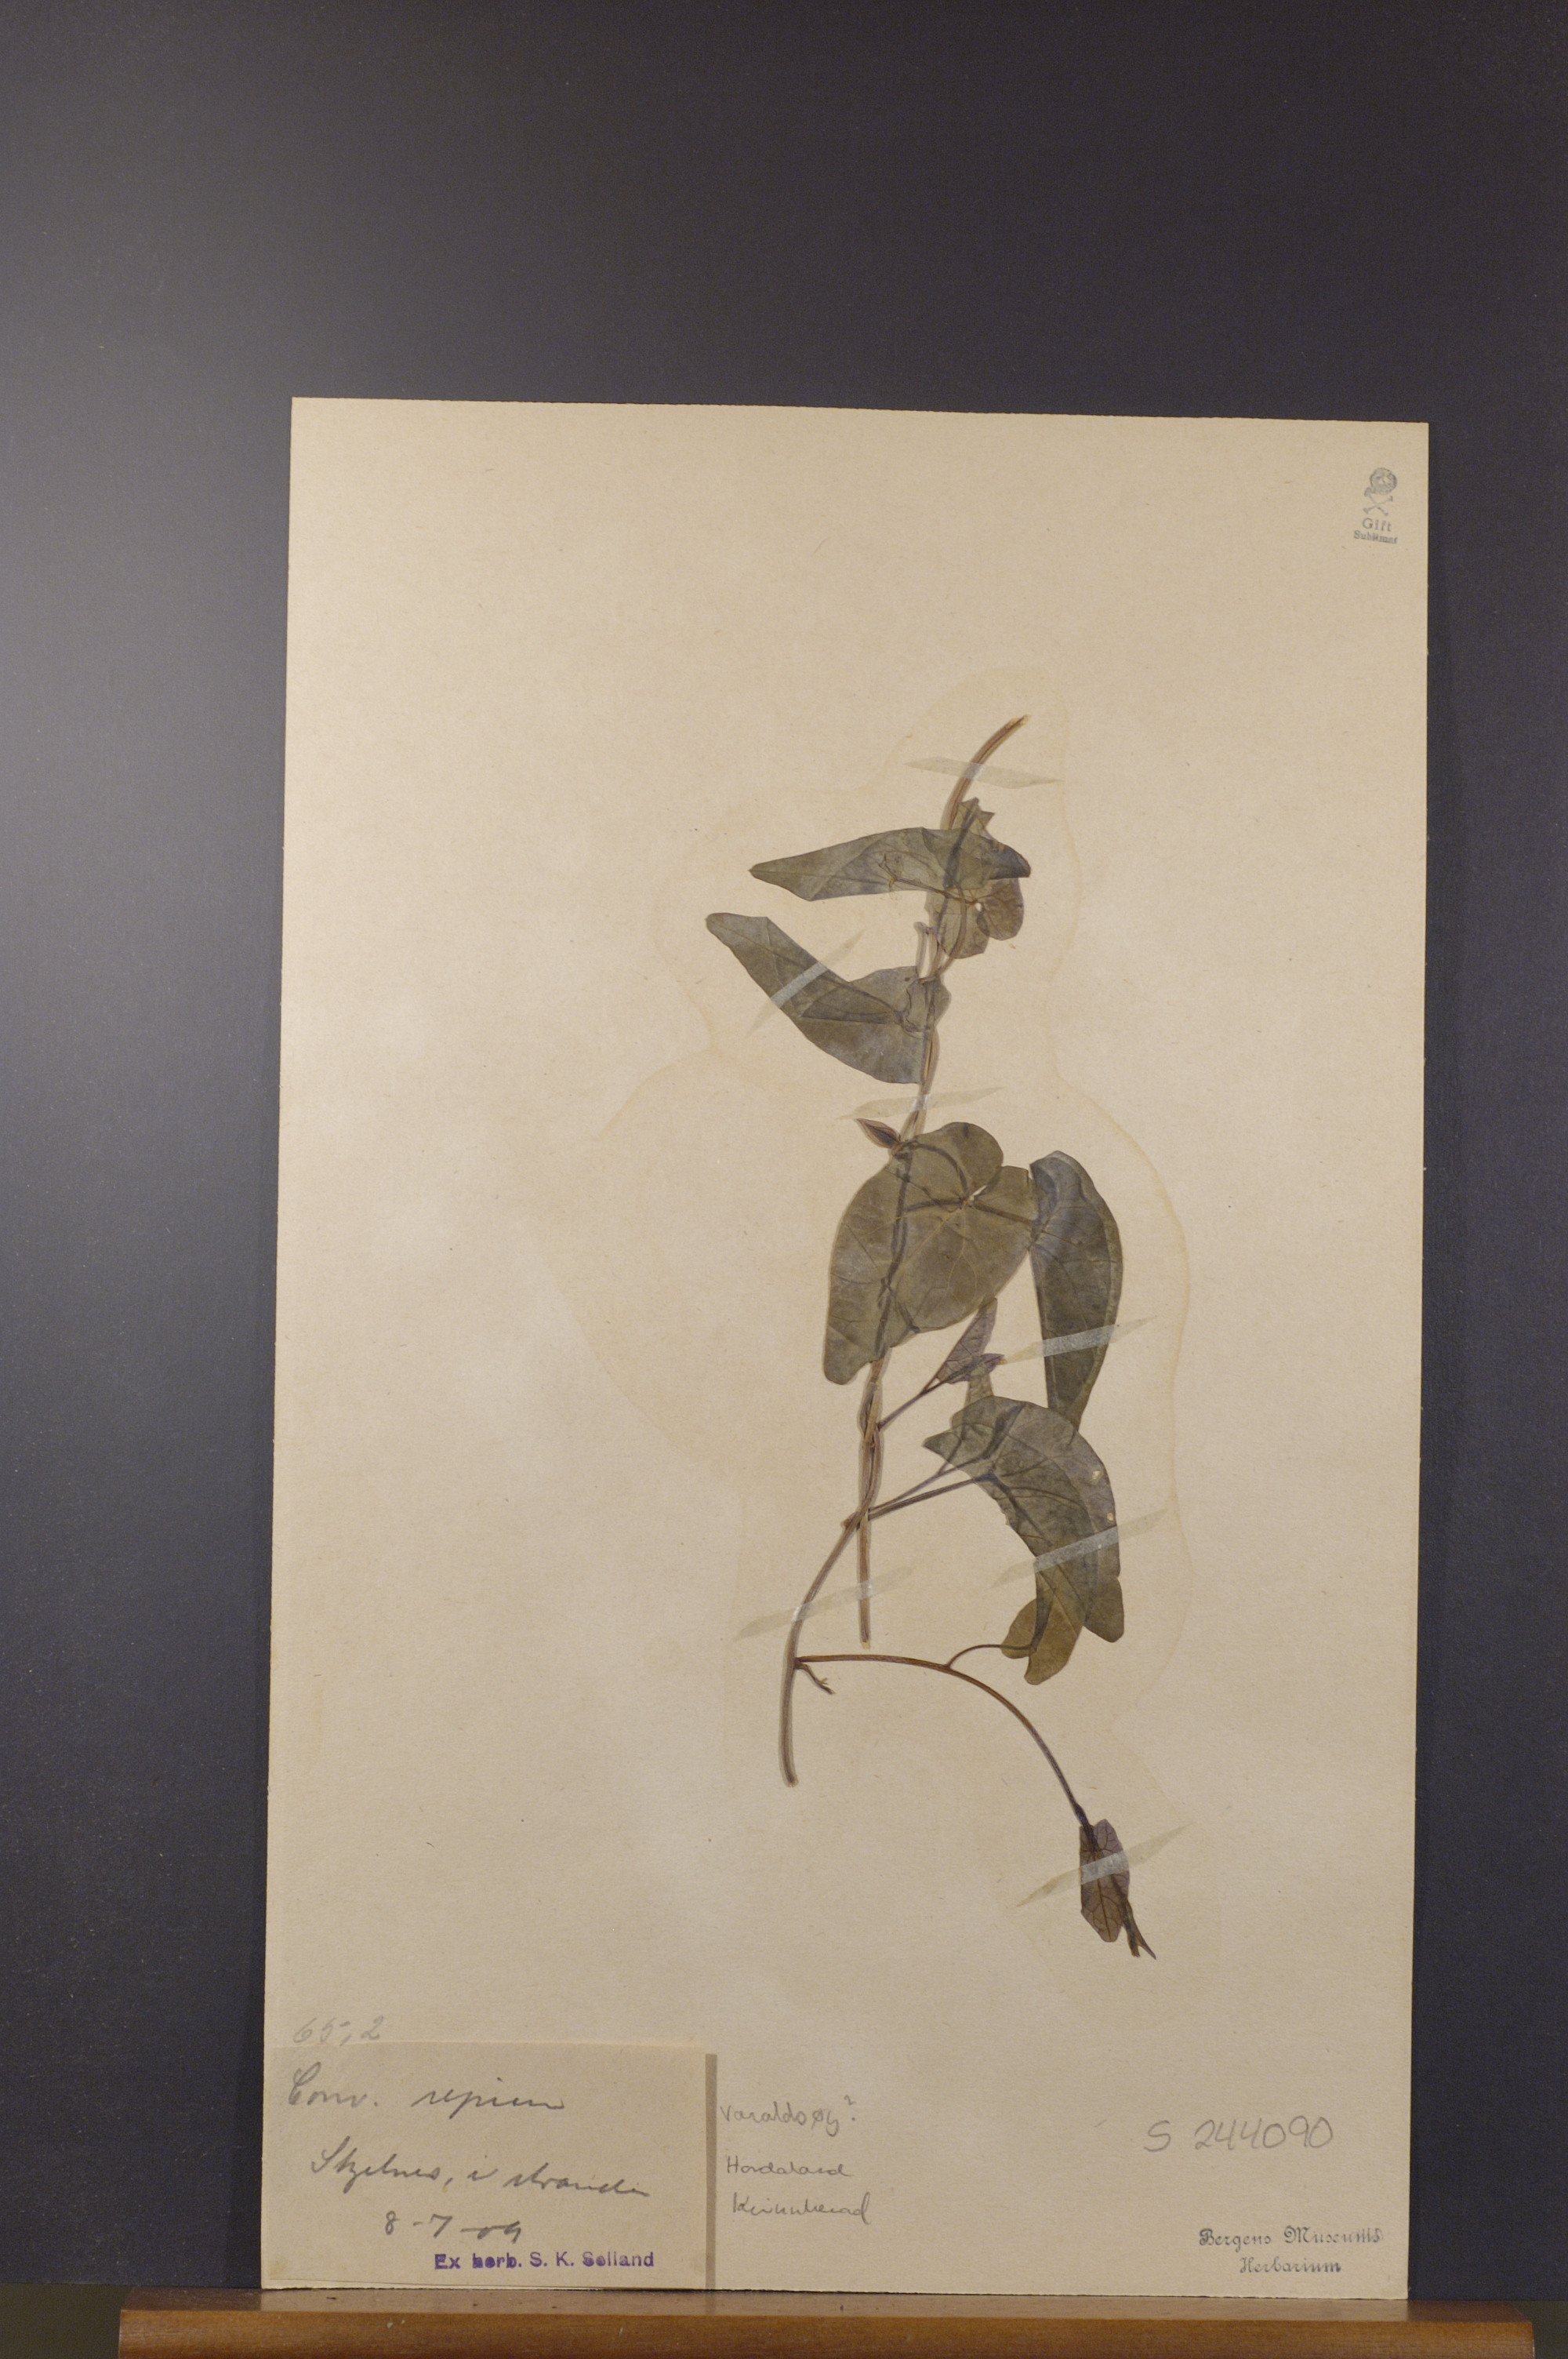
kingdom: Plantae
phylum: Tracheophyta
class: Magnoliopsida
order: Solanales
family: Convolvulaceae
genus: Calystegia
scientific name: Calystegia sepium
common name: Hedge bindweed
